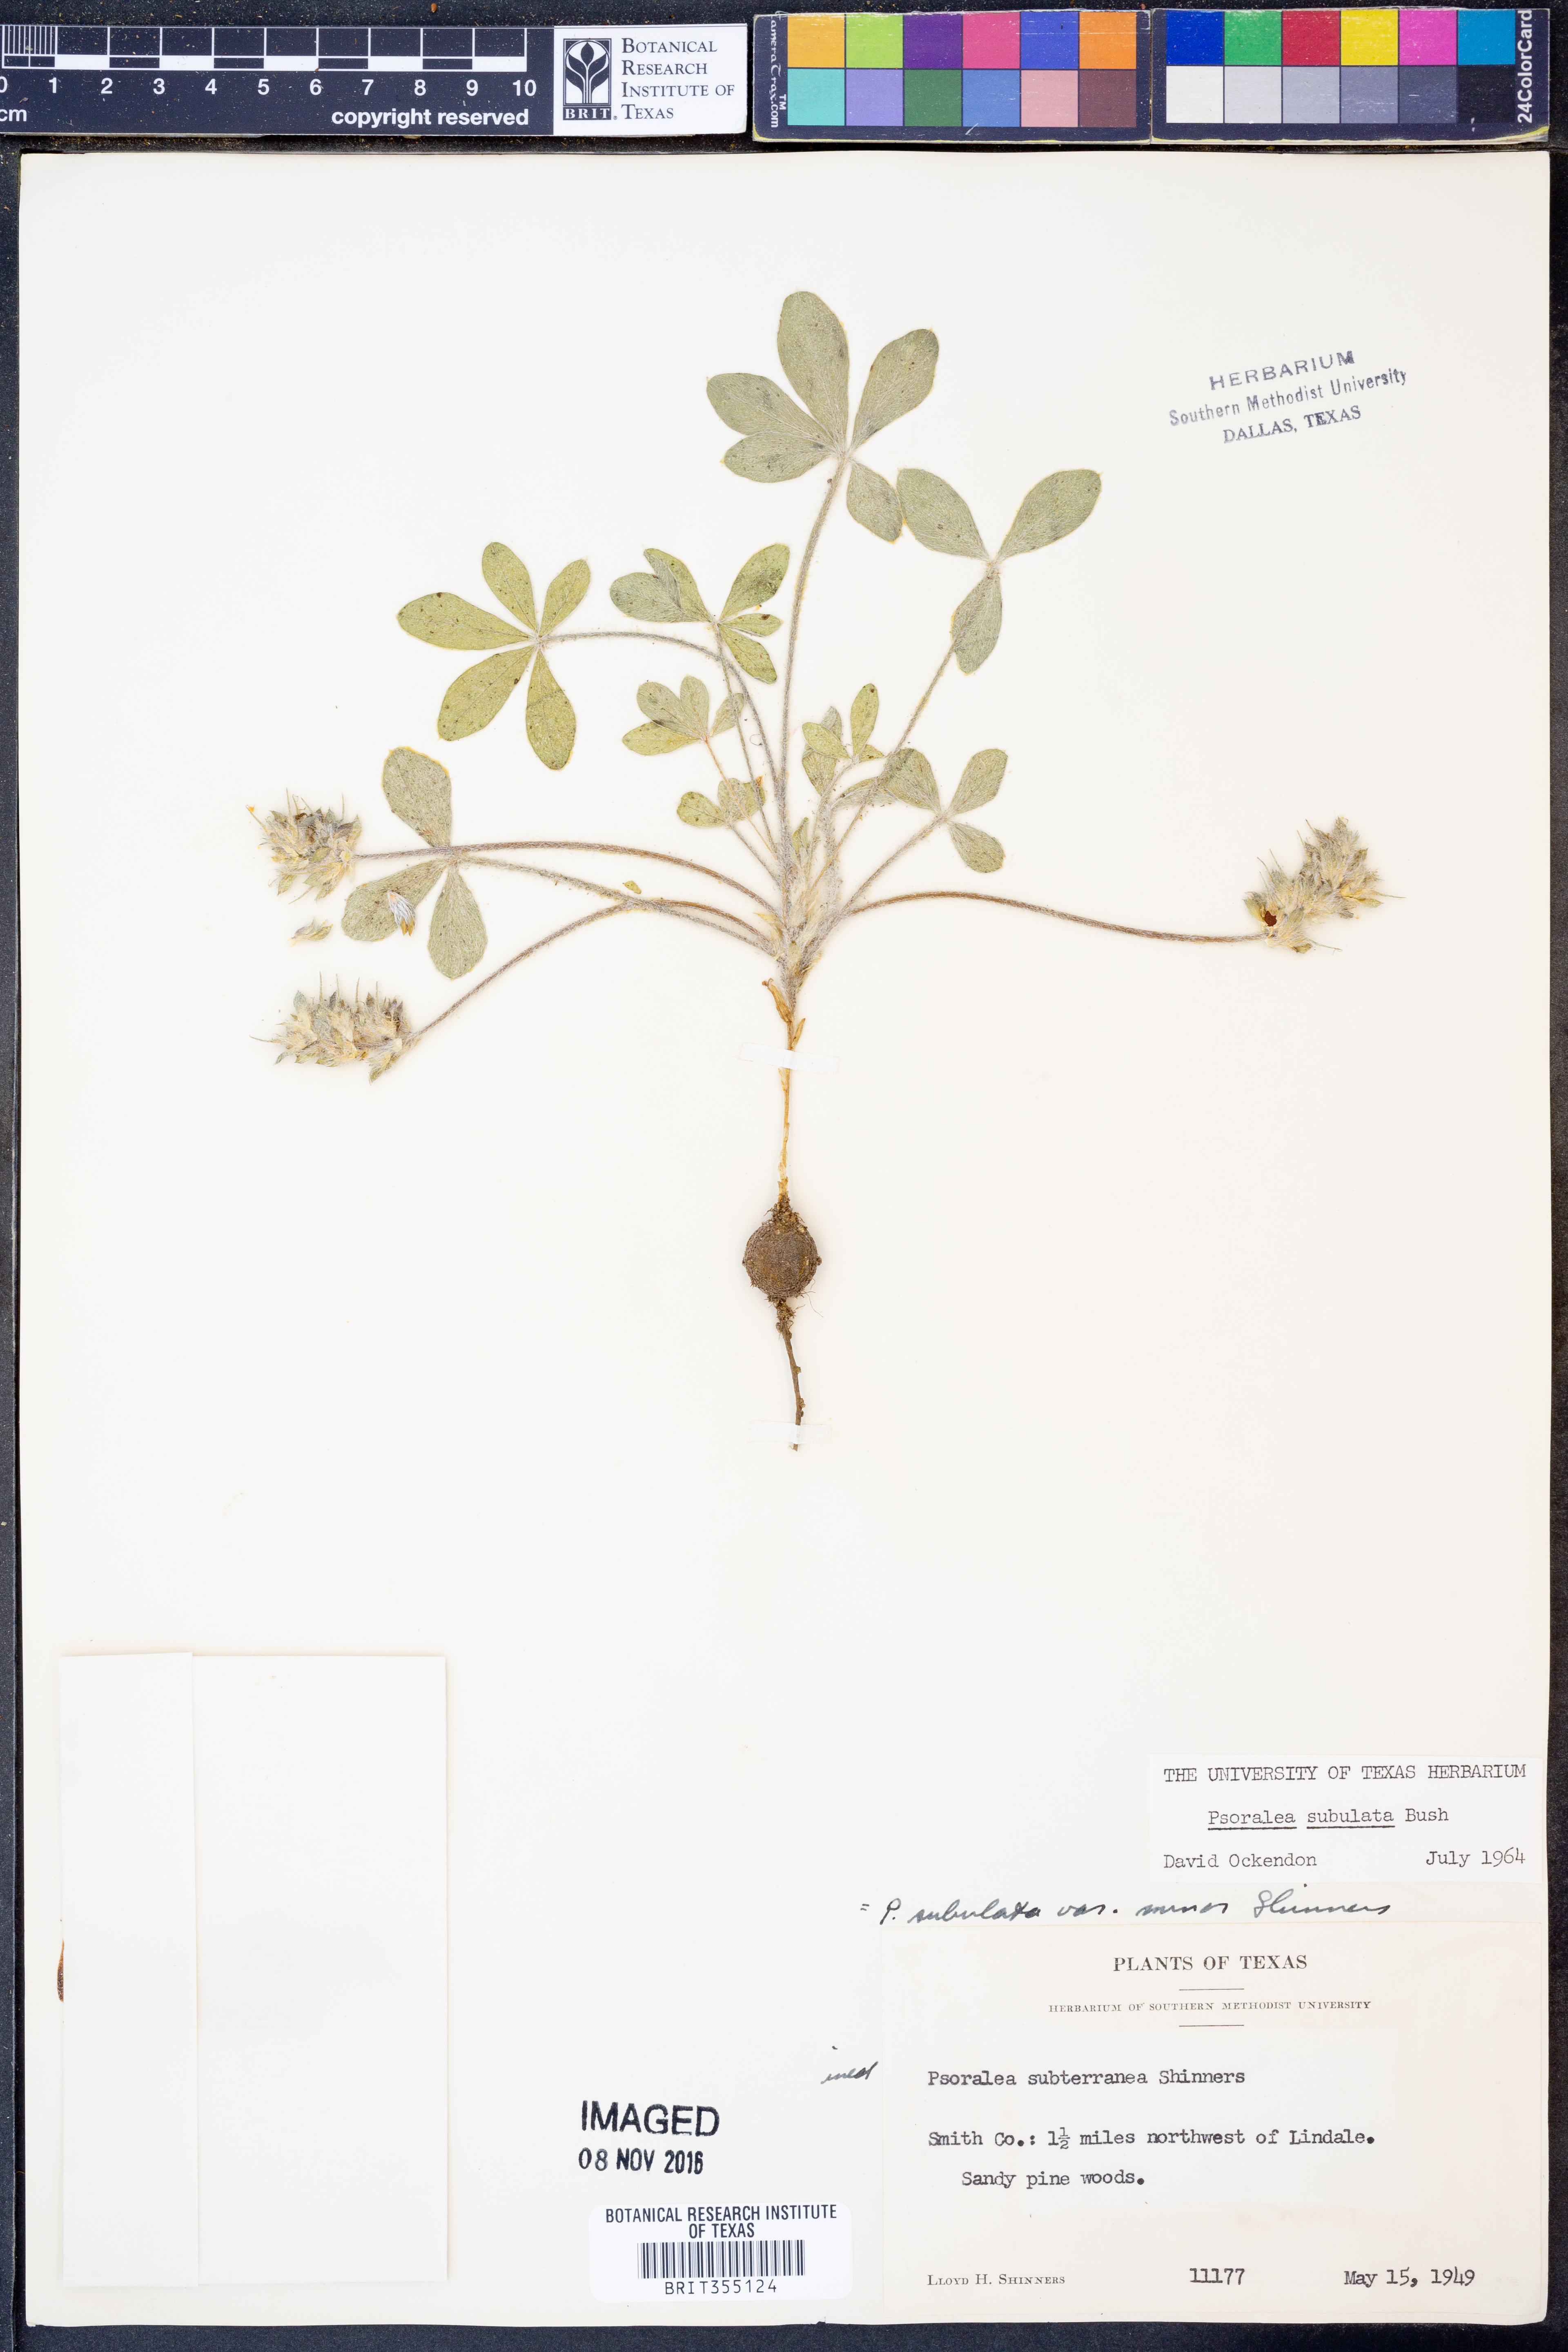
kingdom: Plantae
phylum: Tracheophyta
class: Magnoliopsida
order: Fabales
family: Fabaceae
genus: Pediomelum
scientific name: Pediomelum hypogaeum
